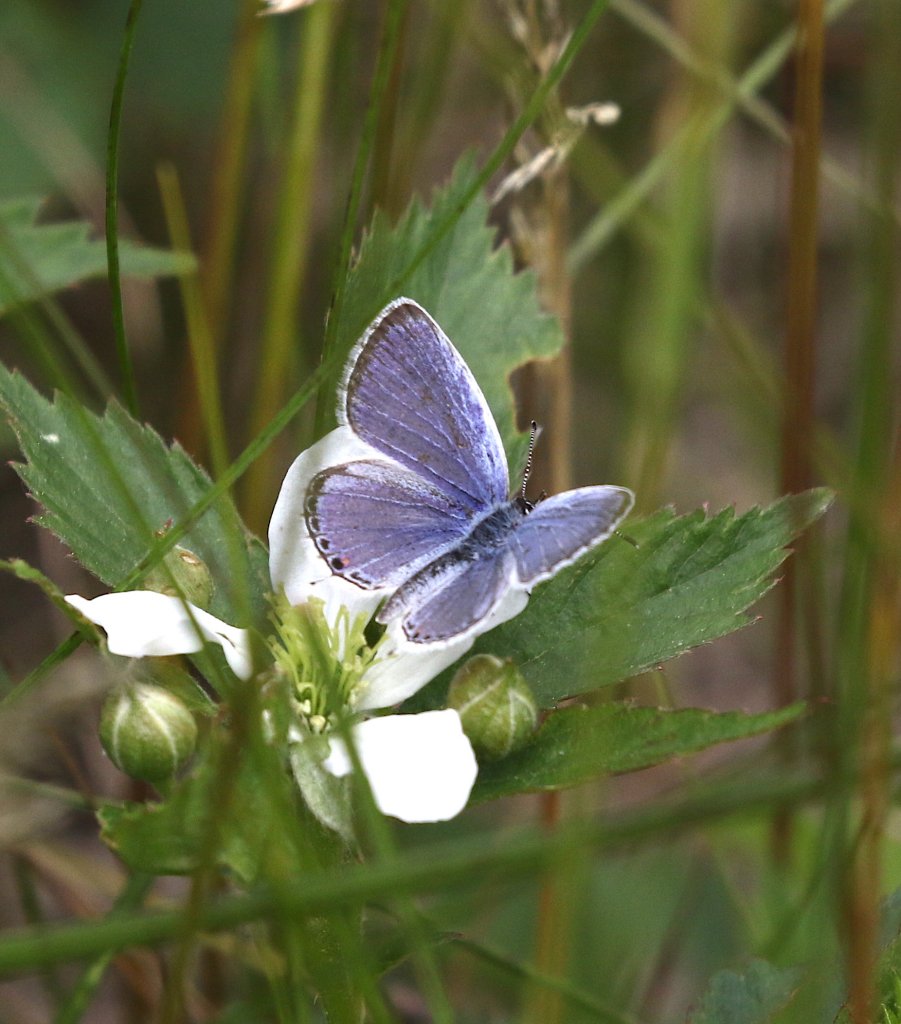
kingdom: Animalia
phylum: Arthropoda
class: Insecta
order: Lepidoptera
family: Lycaenidae
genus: Elkalyce
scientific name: Elkalyce comyntas
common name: Eastern Tailed-Blue
